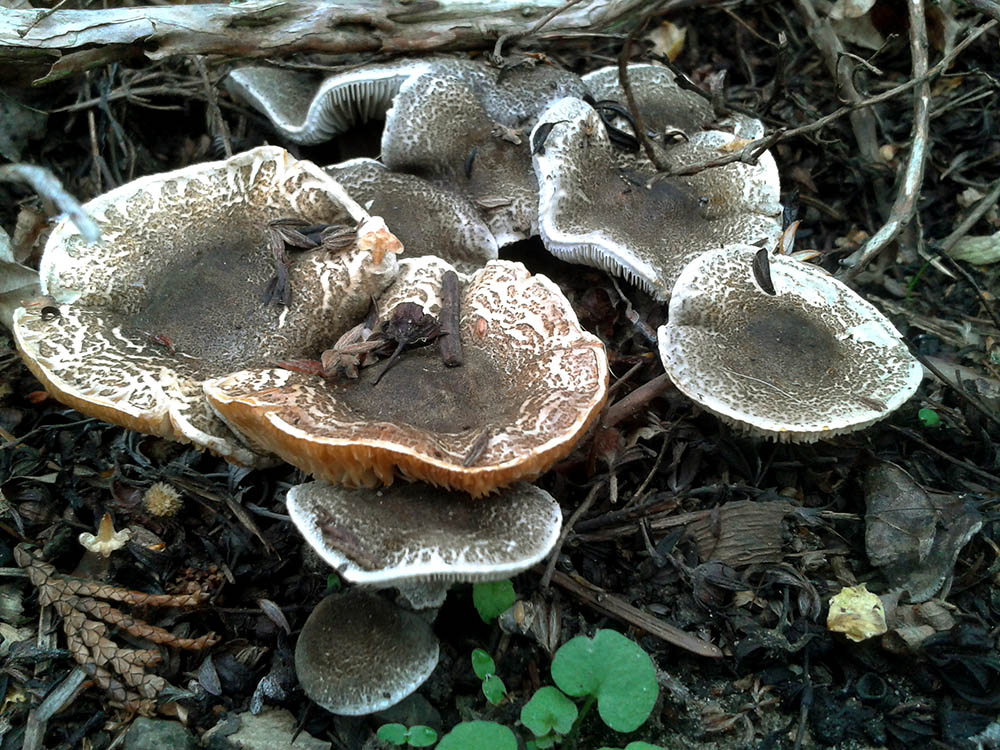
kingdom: Fungi
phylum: Basidiomycota
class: Agaricomycetes
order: Agaricales
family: Agaricaceae
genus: Lepiota
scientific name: Lepiota griseovirens
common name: grågrøn parasolhat
